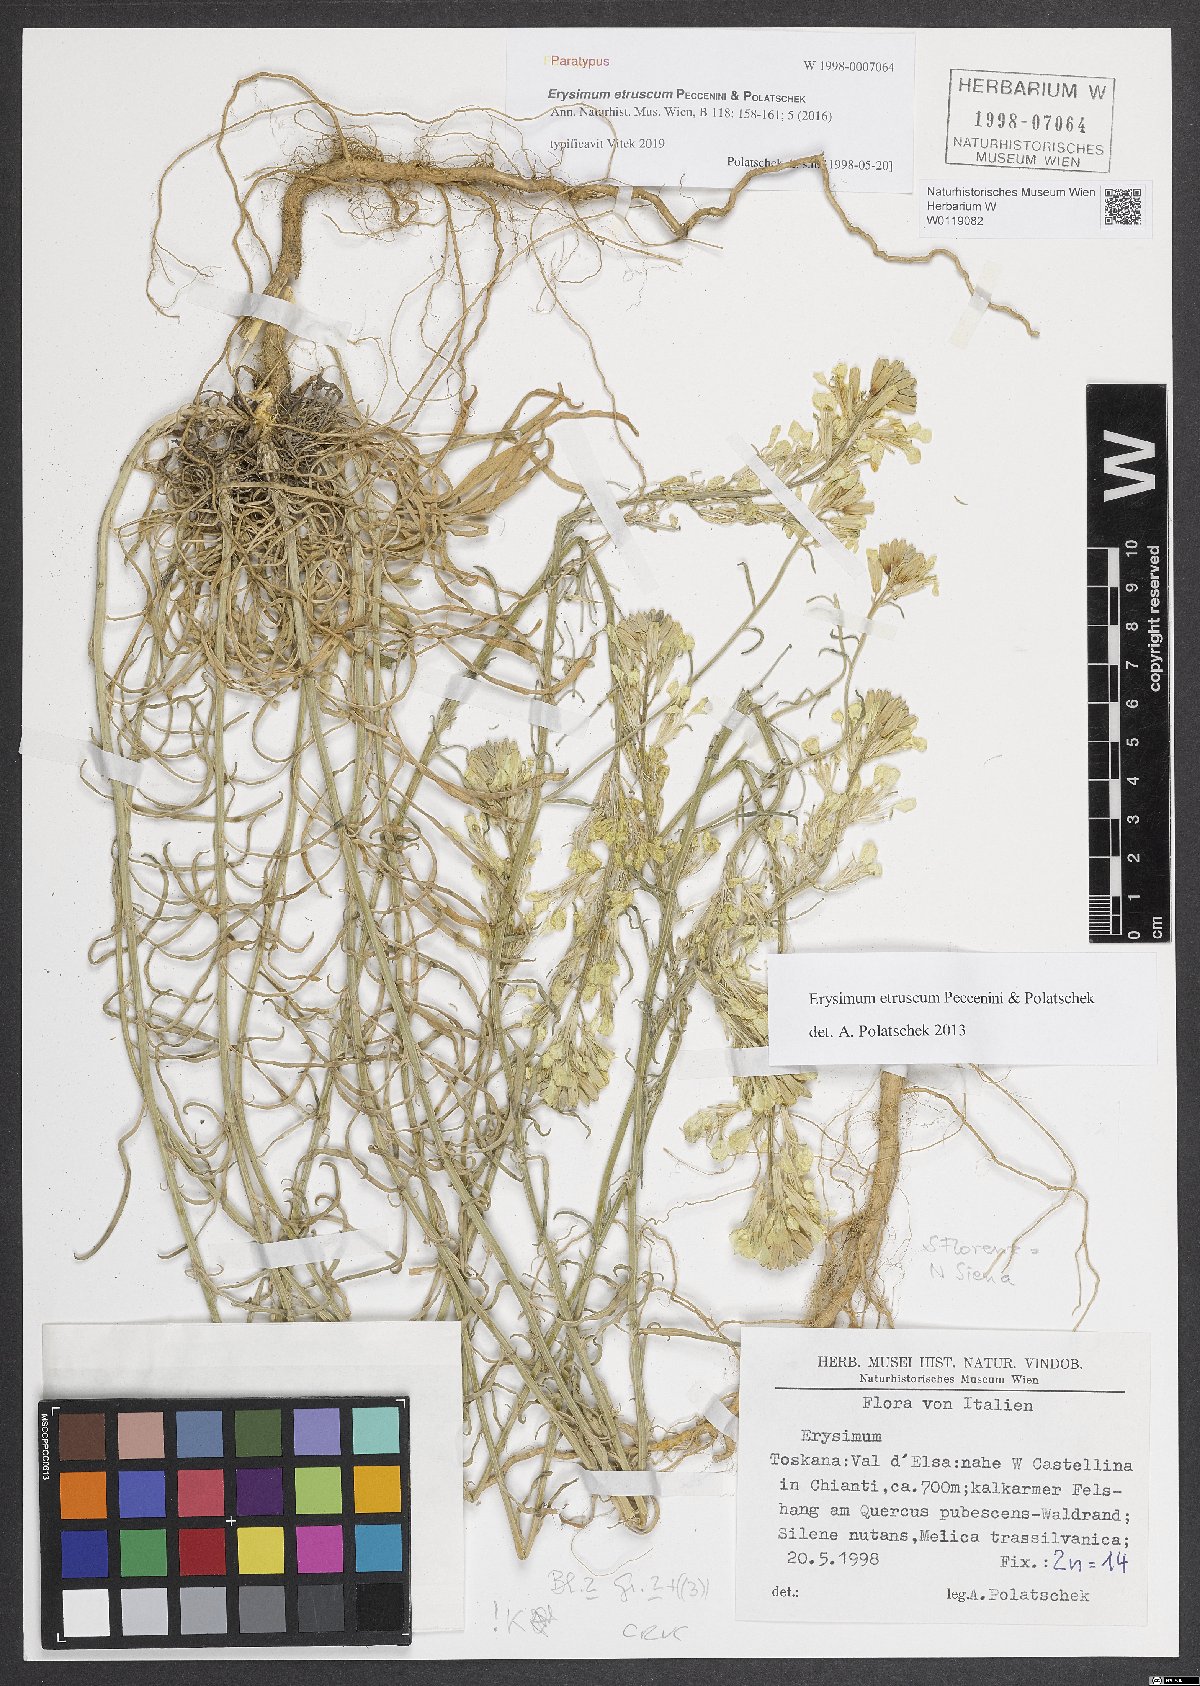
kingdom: Plantae
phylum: Tracheophyta
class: Magnoliopsida
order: Brassicales
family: Brassicaceae
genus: Erysimum
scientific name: Erysimum pseudorhaeticum
